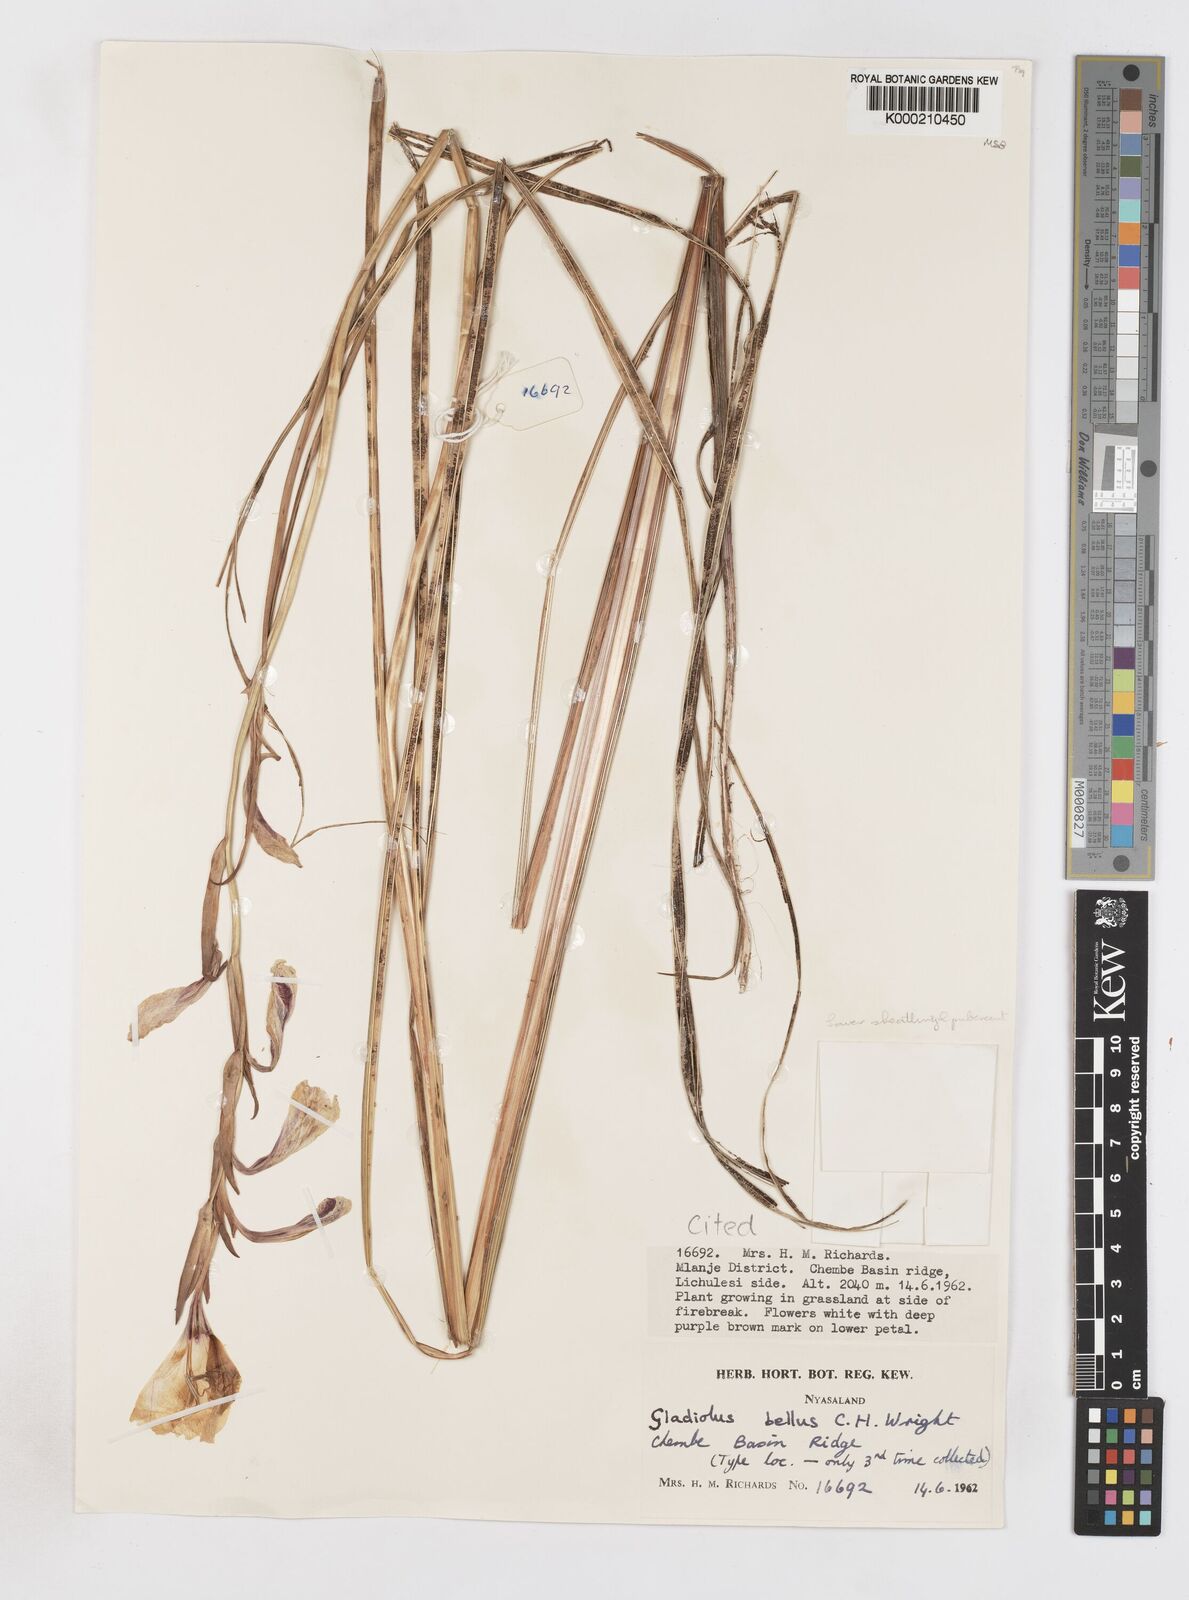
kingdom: Plantae
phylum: Tracheophyta
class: Liliopsida
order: Asparagales
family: Iridaceae
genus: Gladiolus
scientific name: Gladiolus bellus
